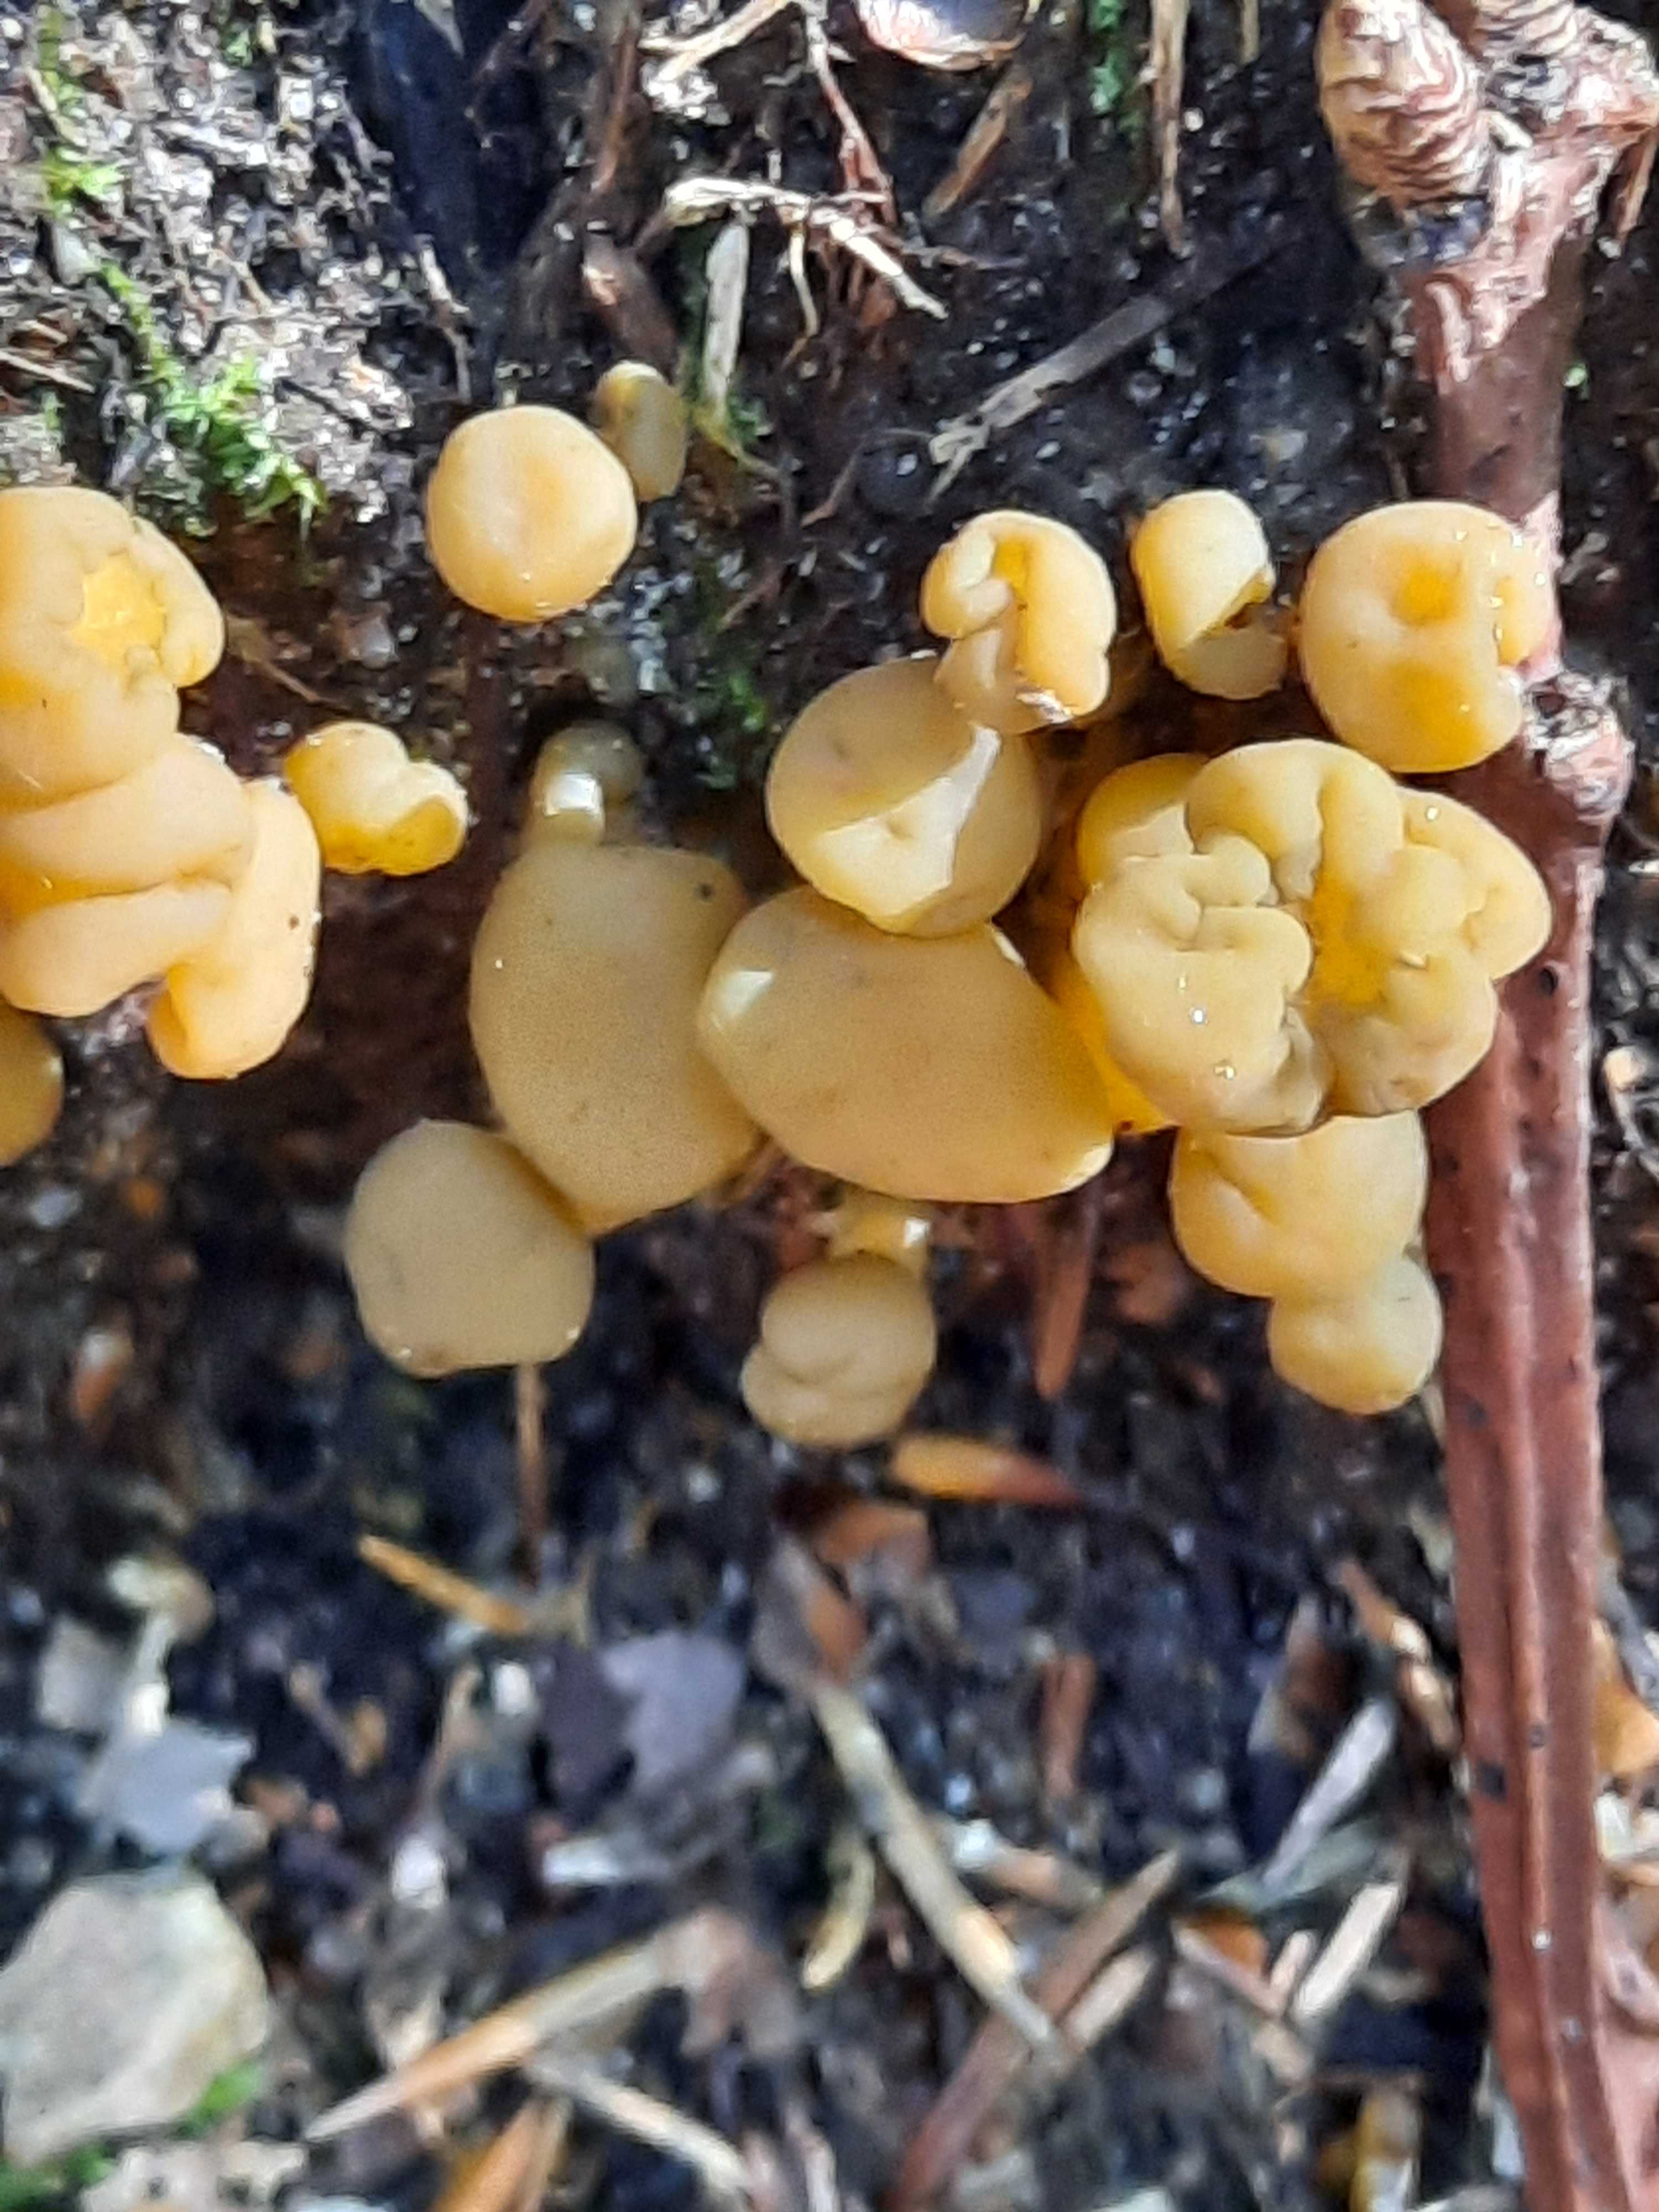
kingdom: Fungi
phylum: Ascomycota
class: Leotiomycetes
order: Leotiales
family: Leotiaceae
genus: Leotia
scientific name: Leotia lubrica
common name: ravsvamp
